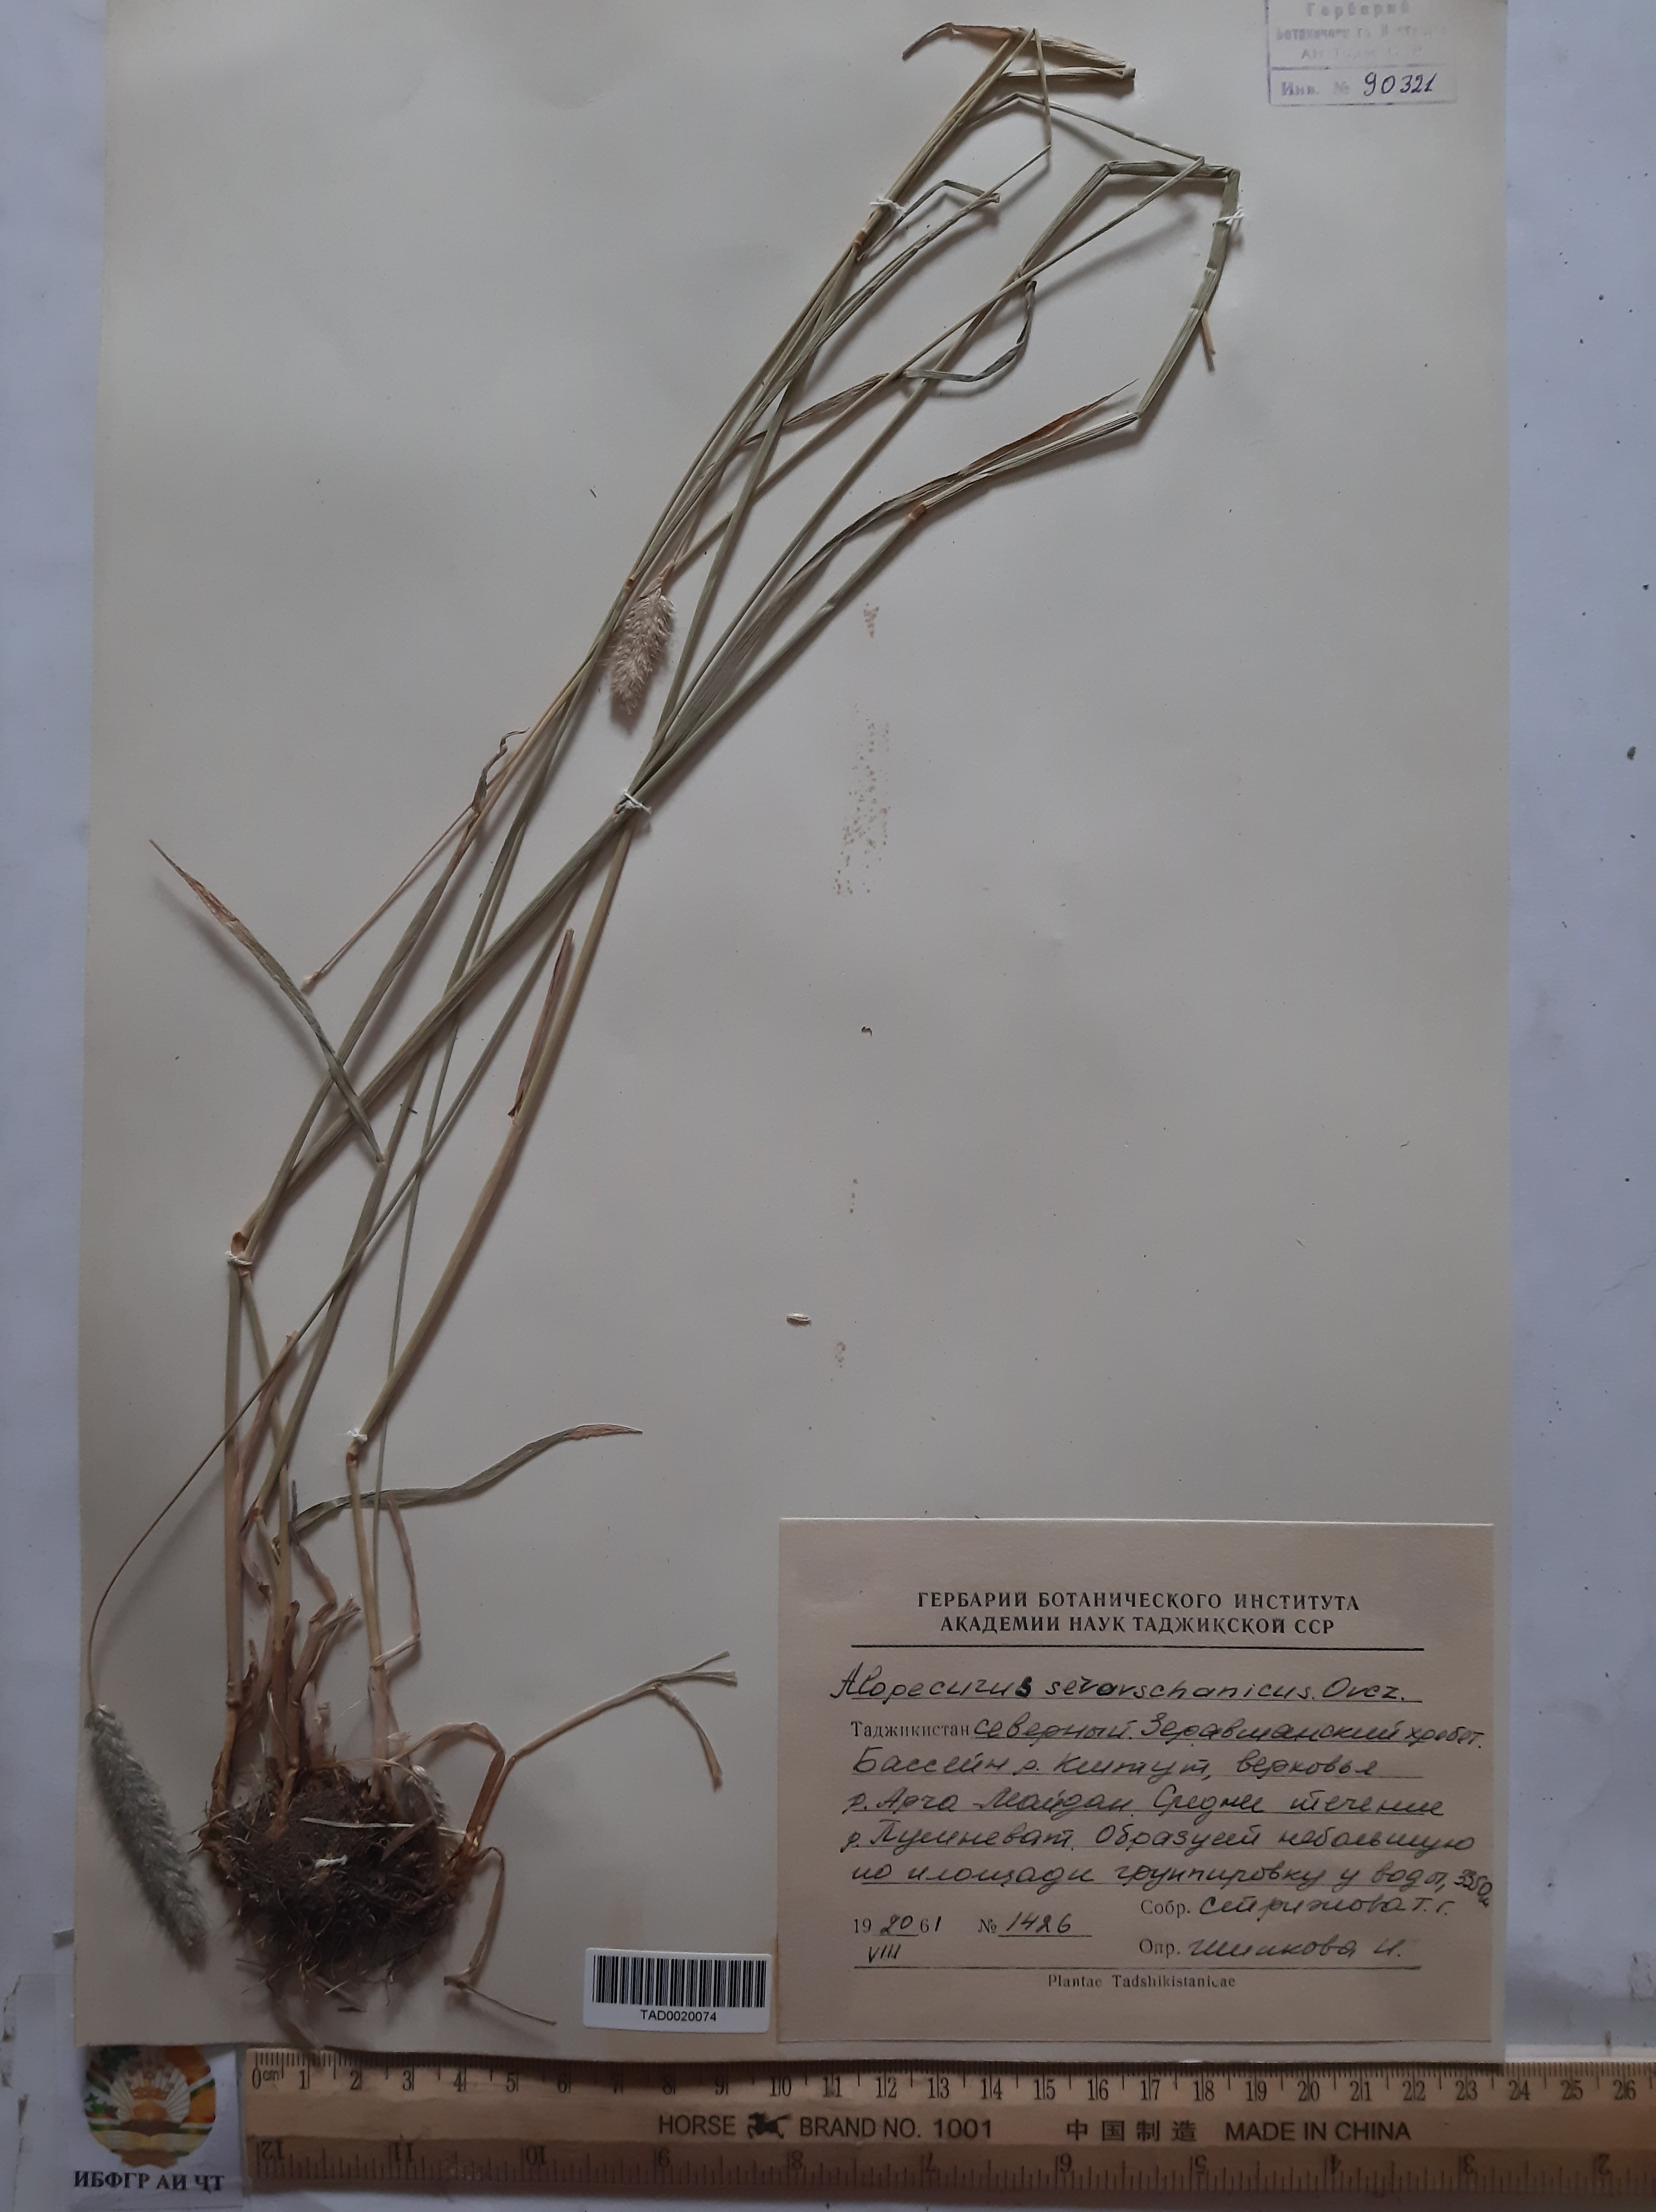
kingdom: Plantae
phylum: Tracheophyta
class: Liliopsida
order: Poales
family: Poaceae
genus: Alopecurus
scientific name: Alopecurus pratensis
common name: Meadow foxtail
